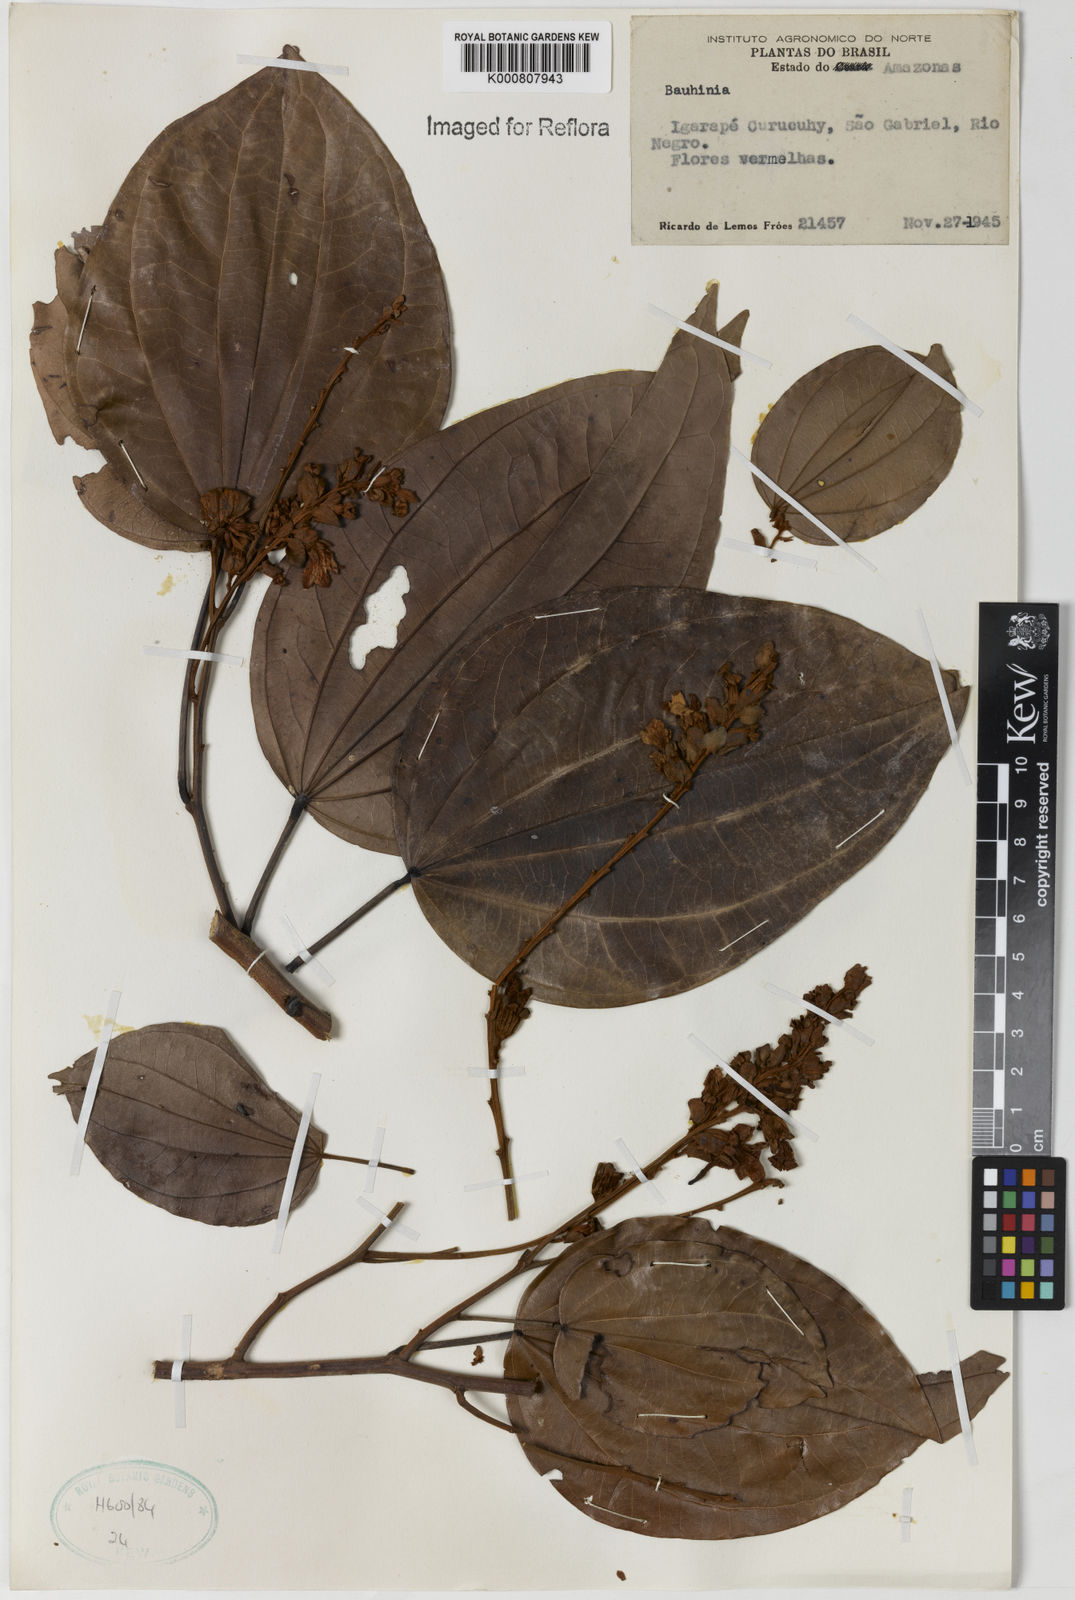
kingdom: Plantae
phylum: Tracheophyta
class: Magnoliopsida
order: Fabales
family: Fabaceae
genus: Schnella
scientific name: Schnella kunthiana
